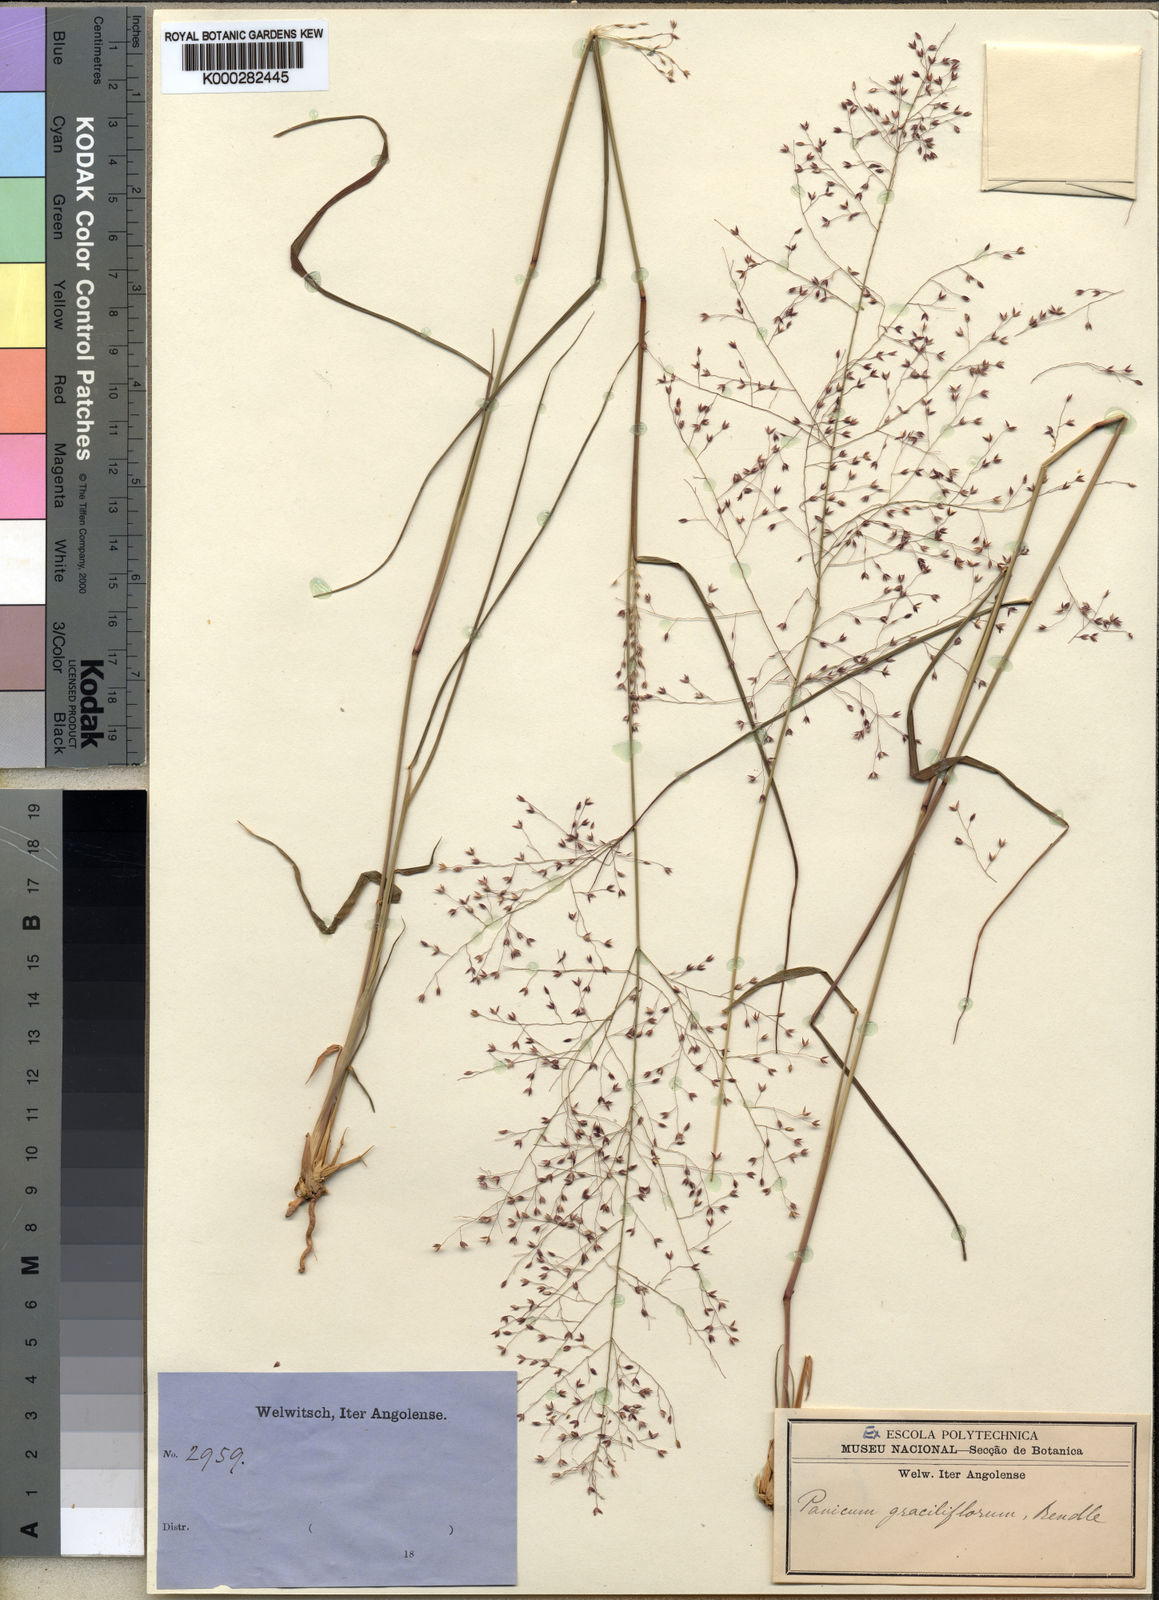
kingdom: Plantae
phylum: Tracheophyta
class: Liliopsida
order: Poales
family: Poaceae
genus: Panicum
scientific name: Panicum graciliflorum
